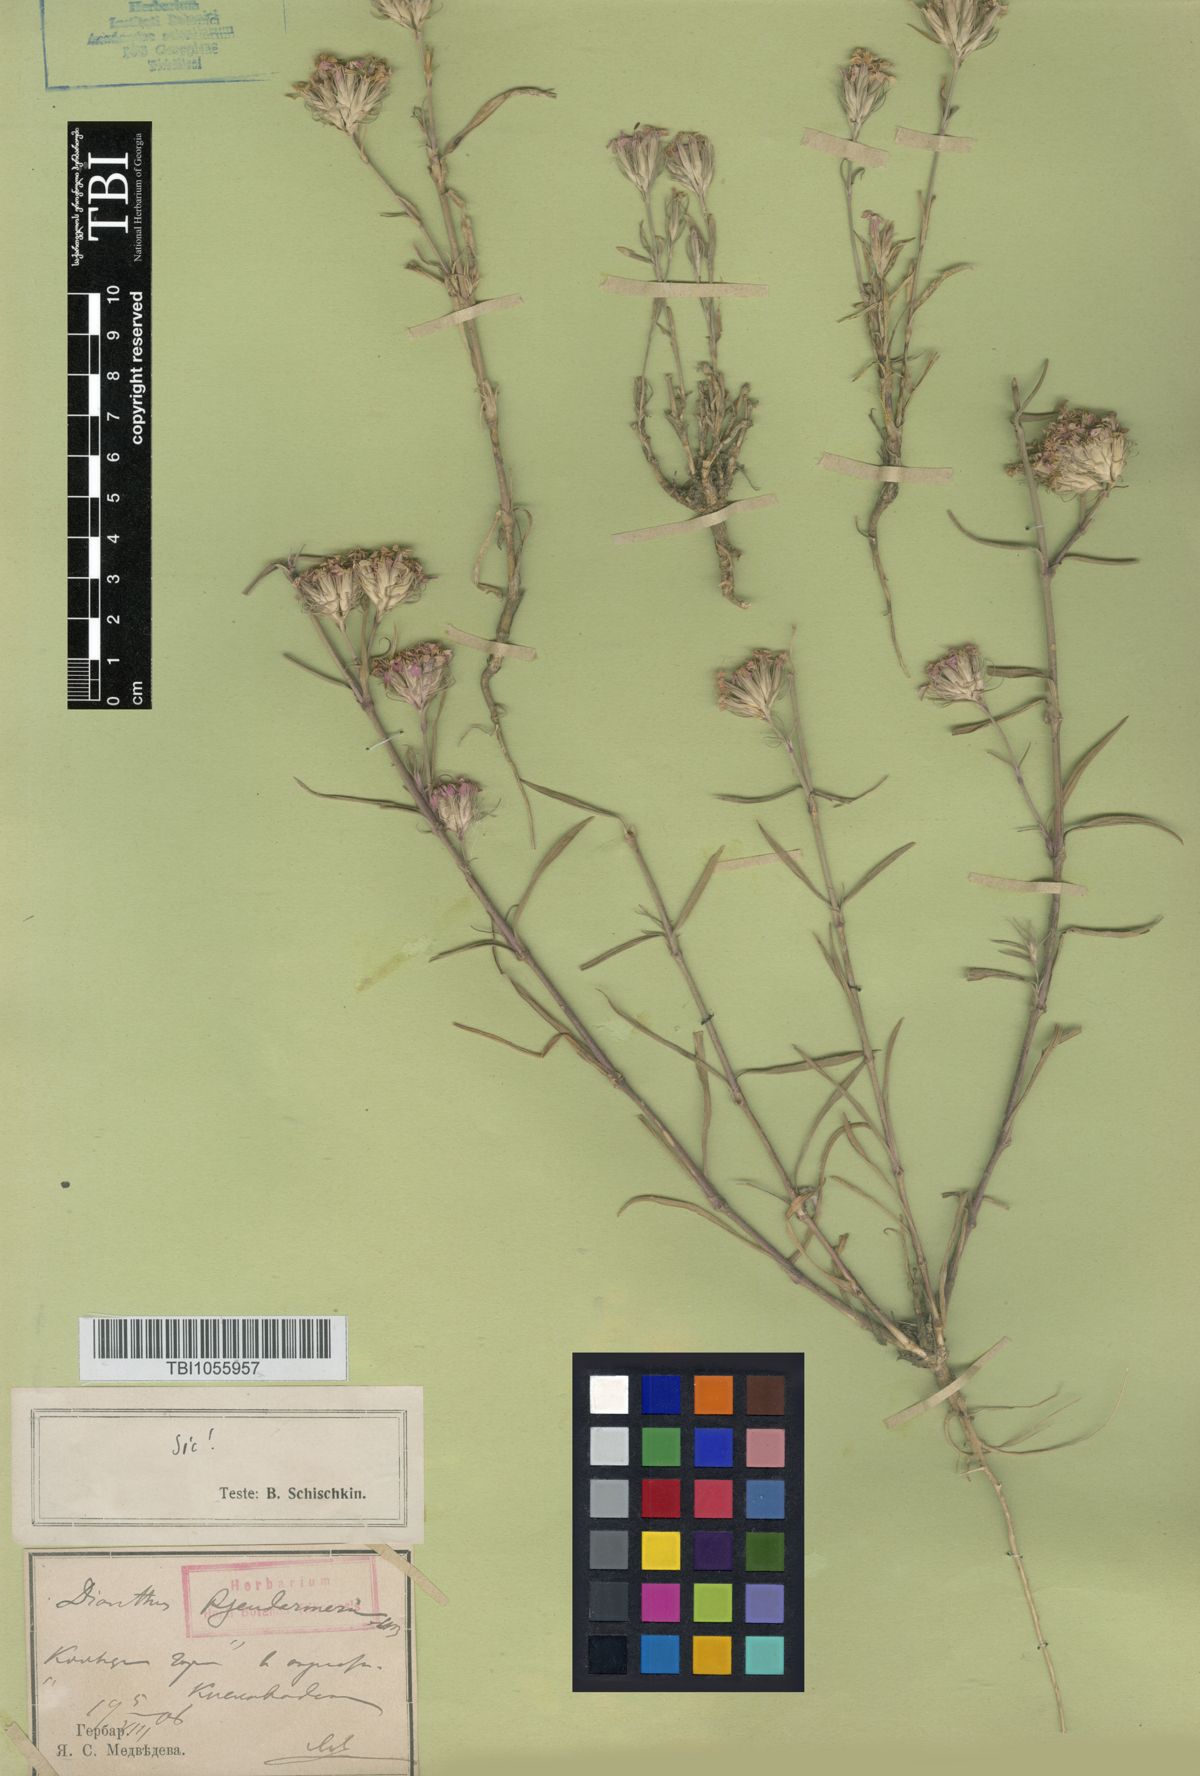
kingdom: Plantae
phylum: Tracheophyta
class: Magnoliopsida
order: Caryophyllales
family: Caryophyllaceae
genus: Dianthus
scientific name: Dianthus pseudarmeria
